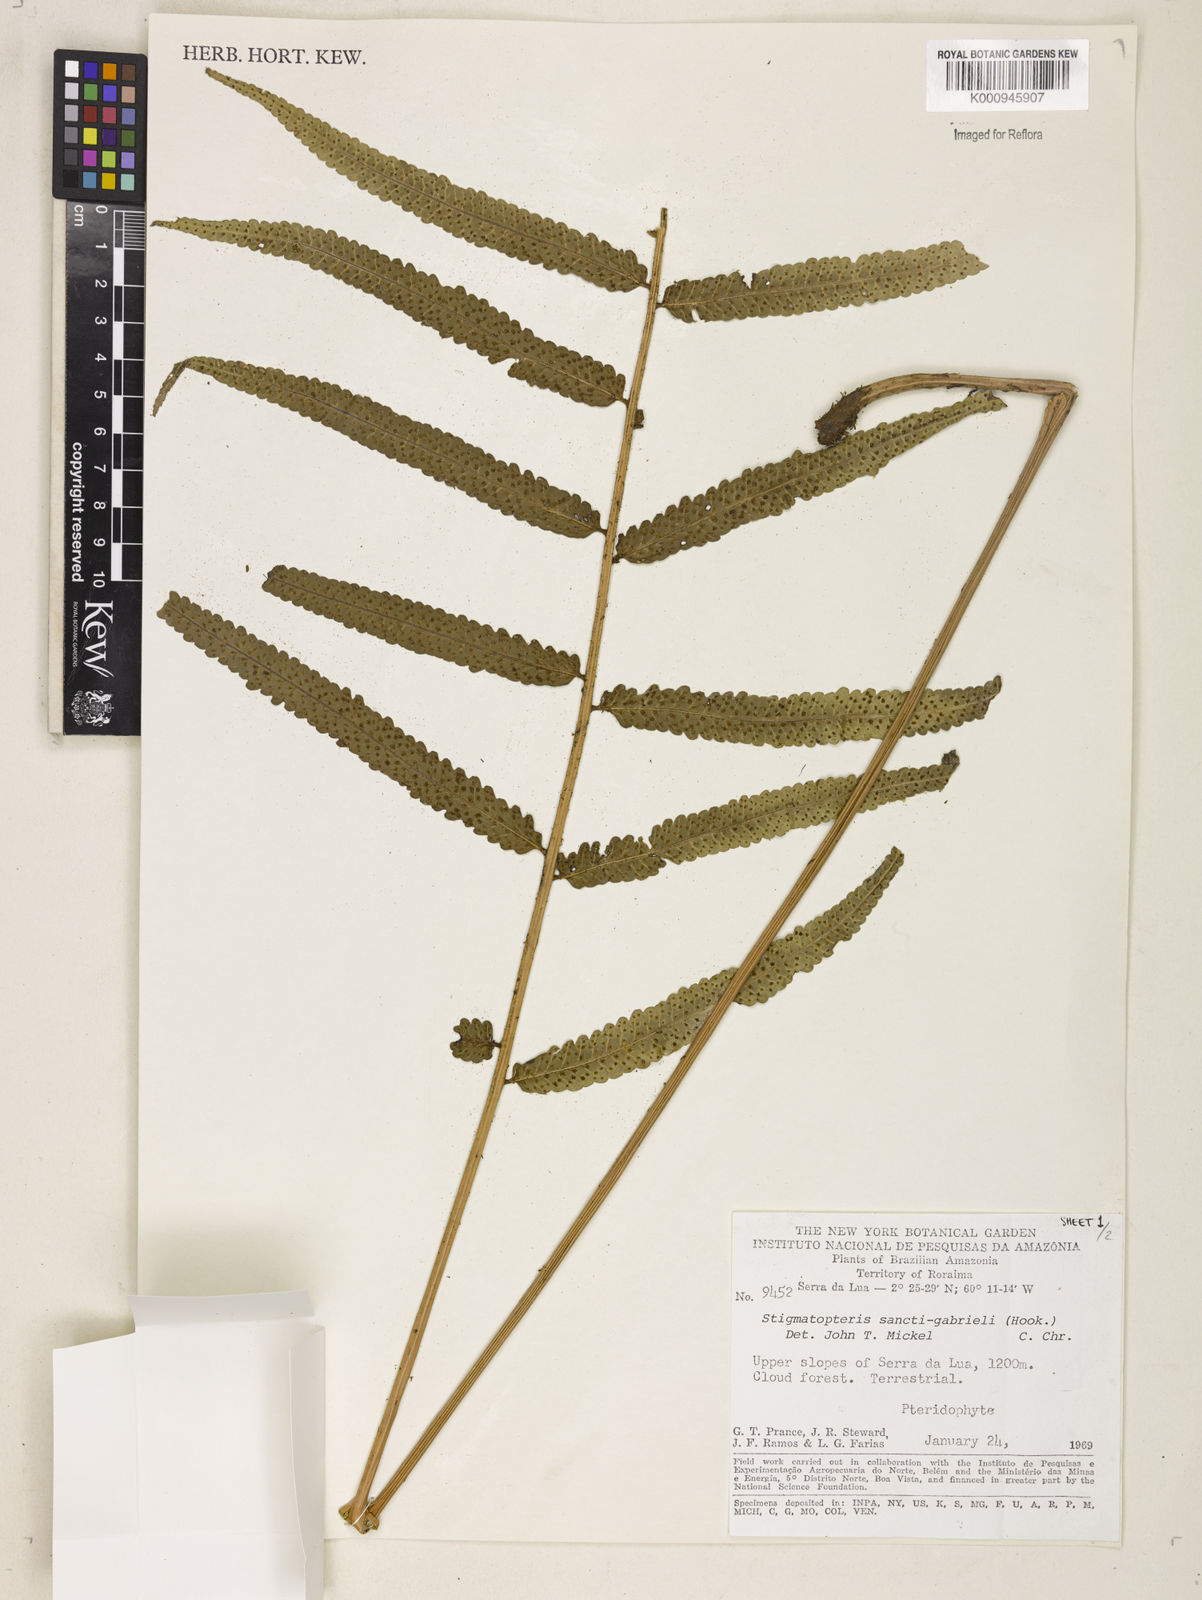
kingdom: Plantae
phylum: Tracheophyta
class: Polypodiopsida
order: Polypodiales
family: Dryopteridaceae
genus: Cyclodium
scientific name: Cyclodium
